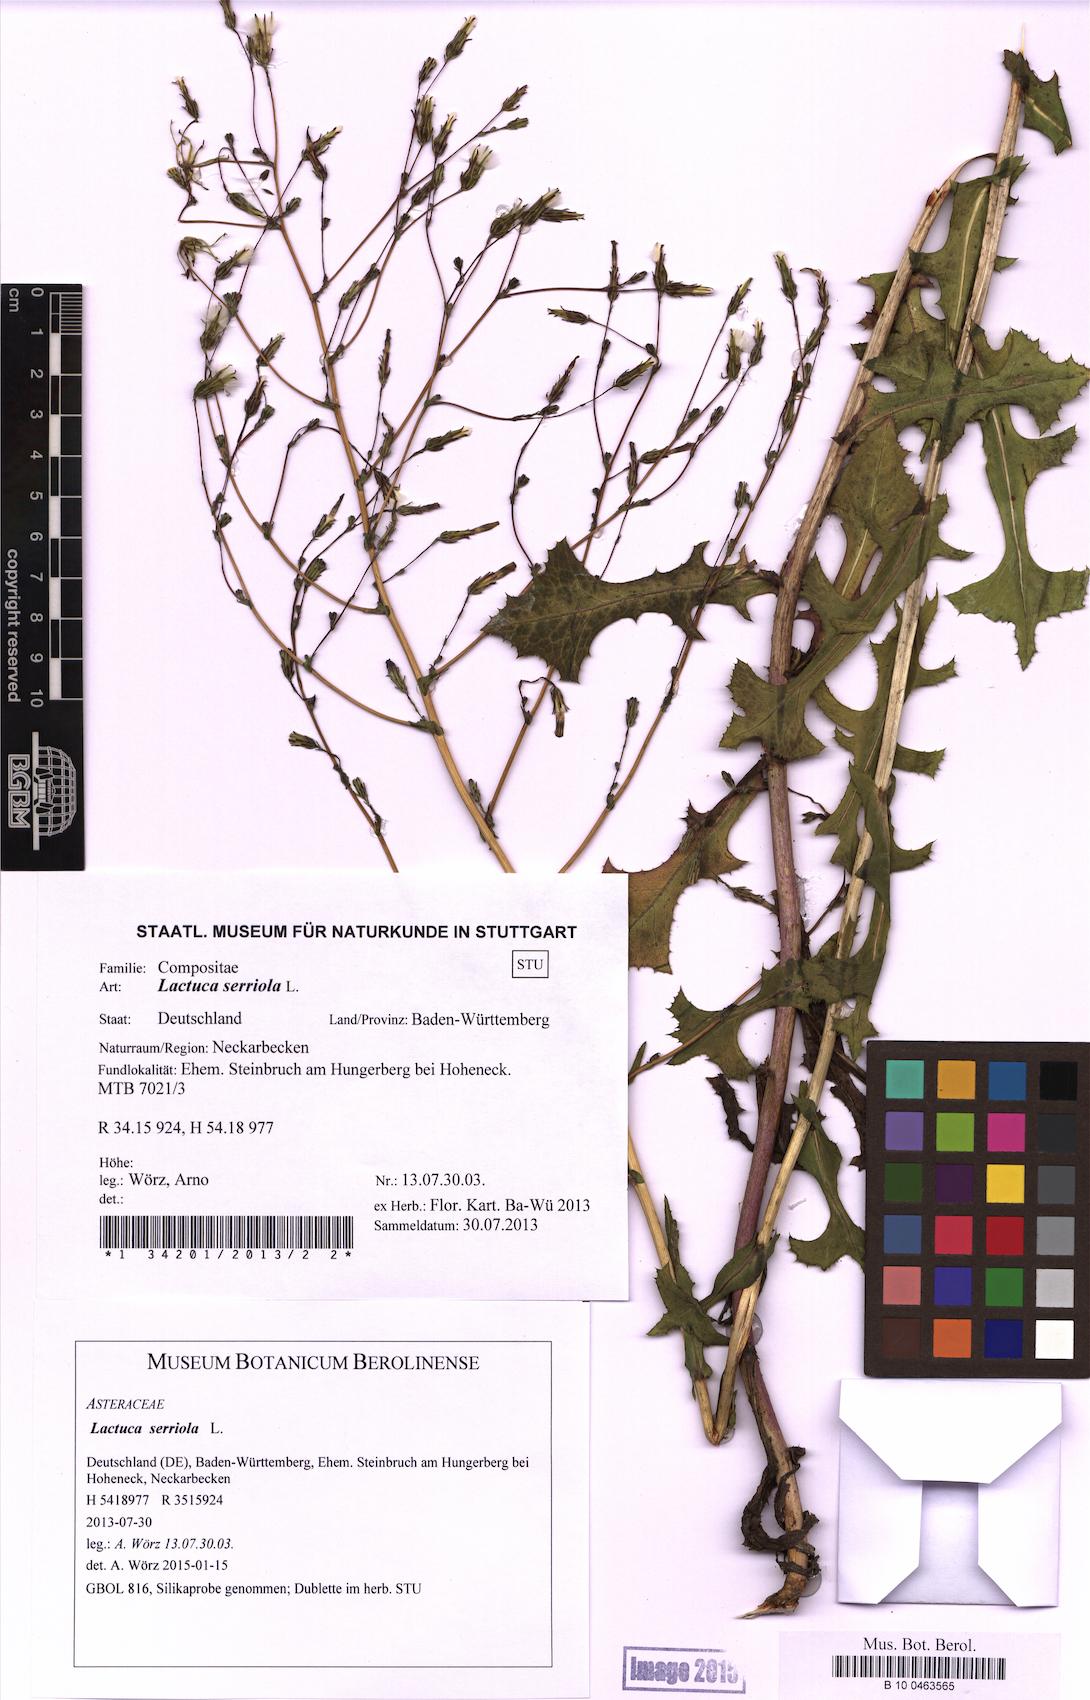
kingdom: Plantae
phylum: Tracheophyta
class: Magnoliopsida
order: Asterales
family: Asteraceae
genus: Lactuca
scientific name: Lactuca serriola
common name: Prickly lettuce
